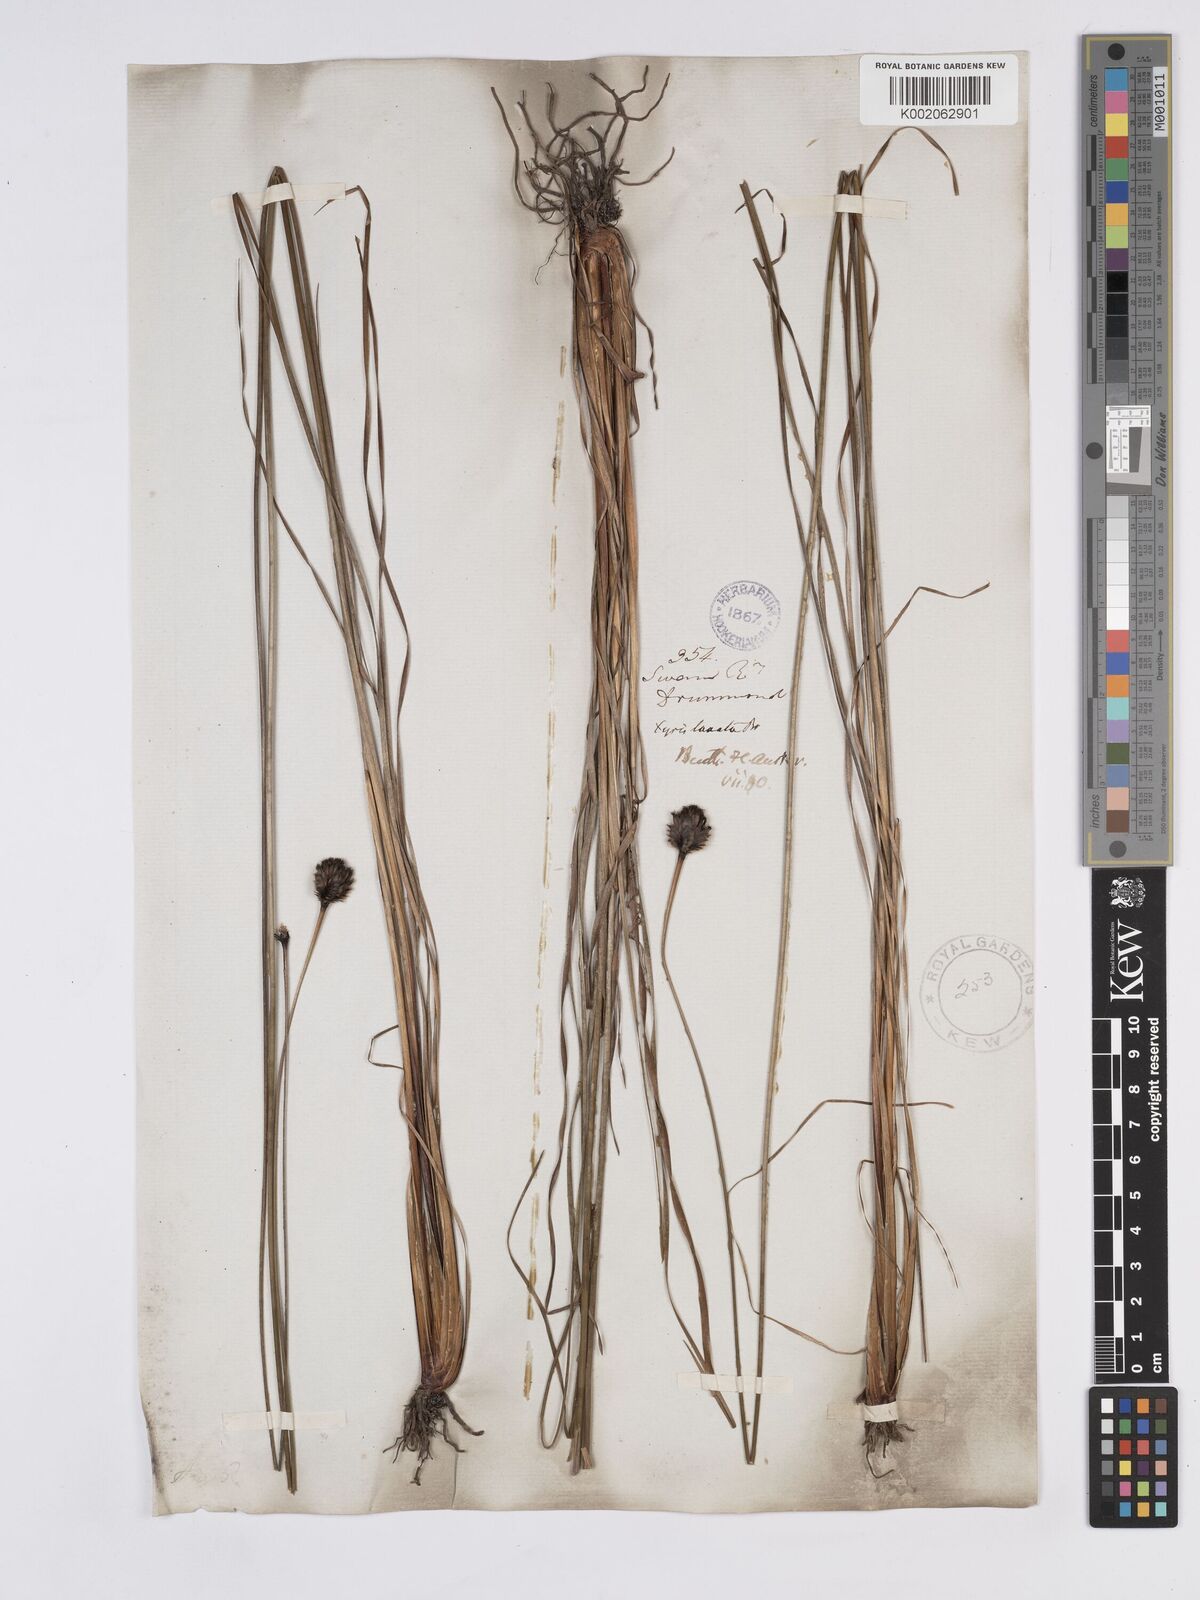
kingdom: Plantae
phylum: Tracheophyta
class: Liliopsida
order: Poales
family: Xyridaceae
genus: Xyris
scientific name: Xyris lanata
